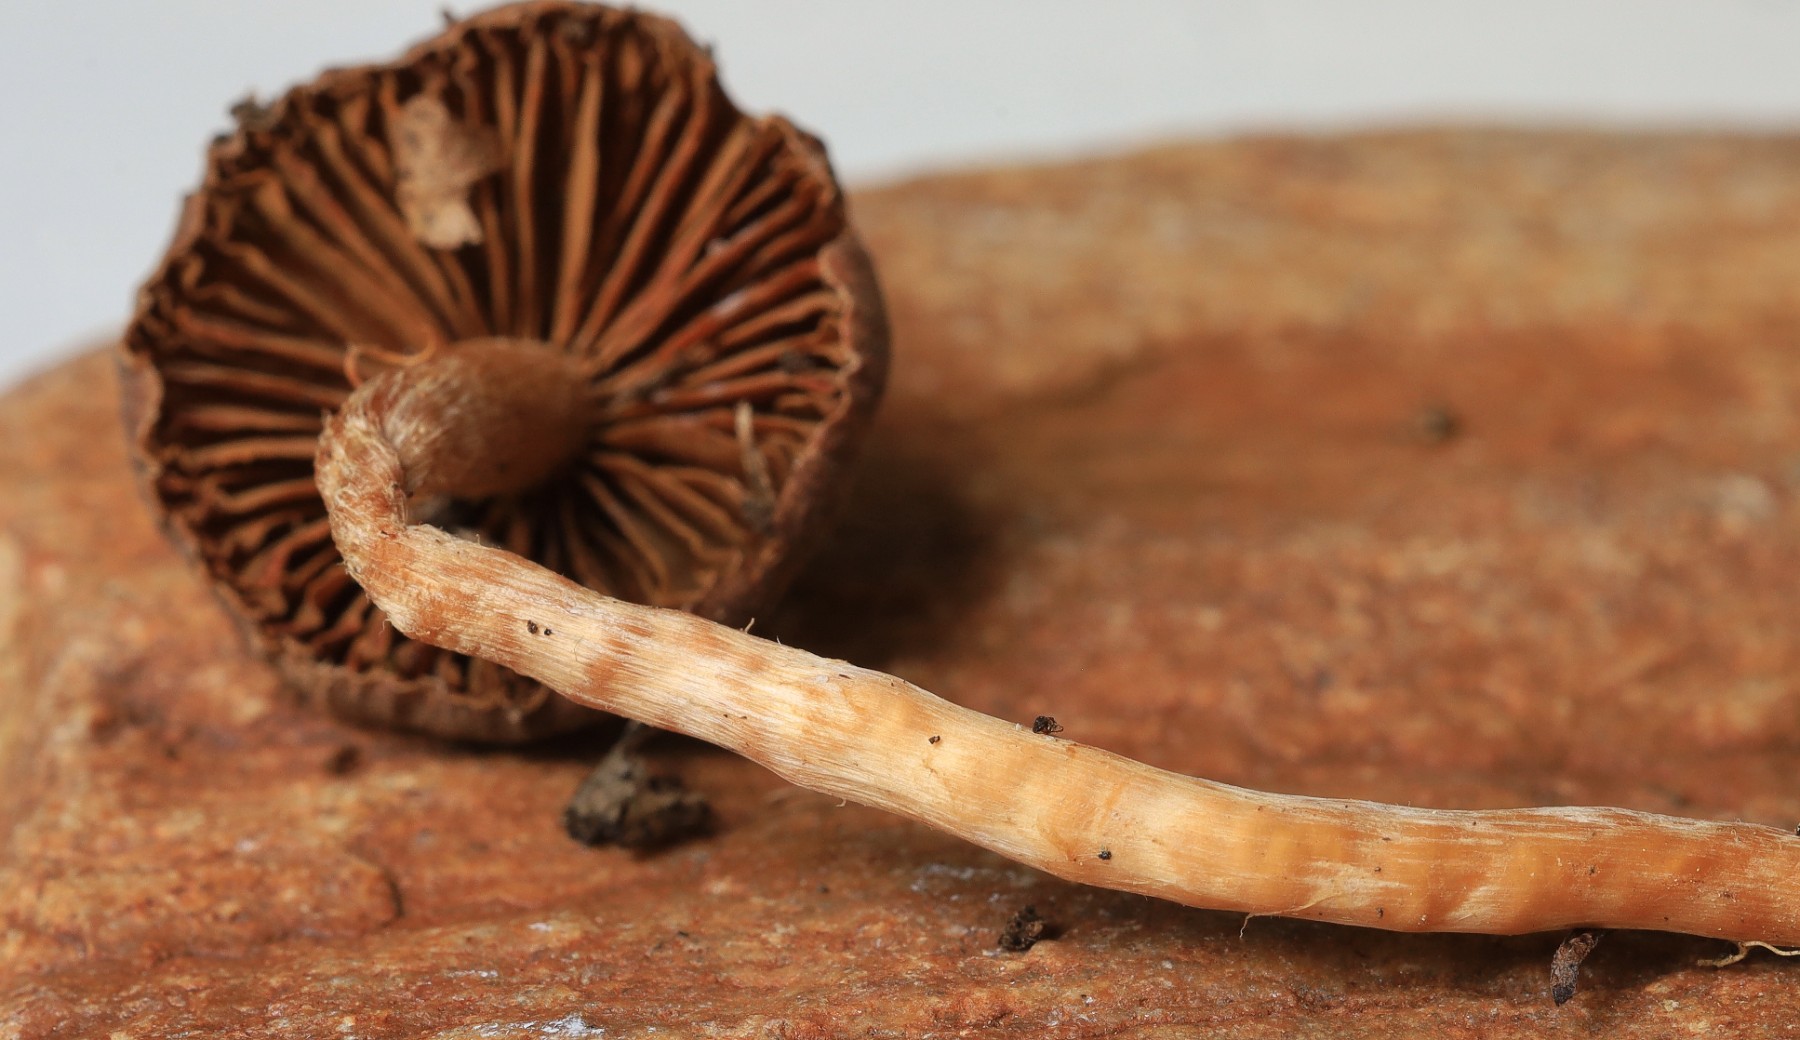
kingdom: Fungi
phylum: Basidiomycota
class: Agaricomycetes
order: Agaricales
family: Cortinariaceae
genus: Cortinarius
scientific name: Cortinarius
